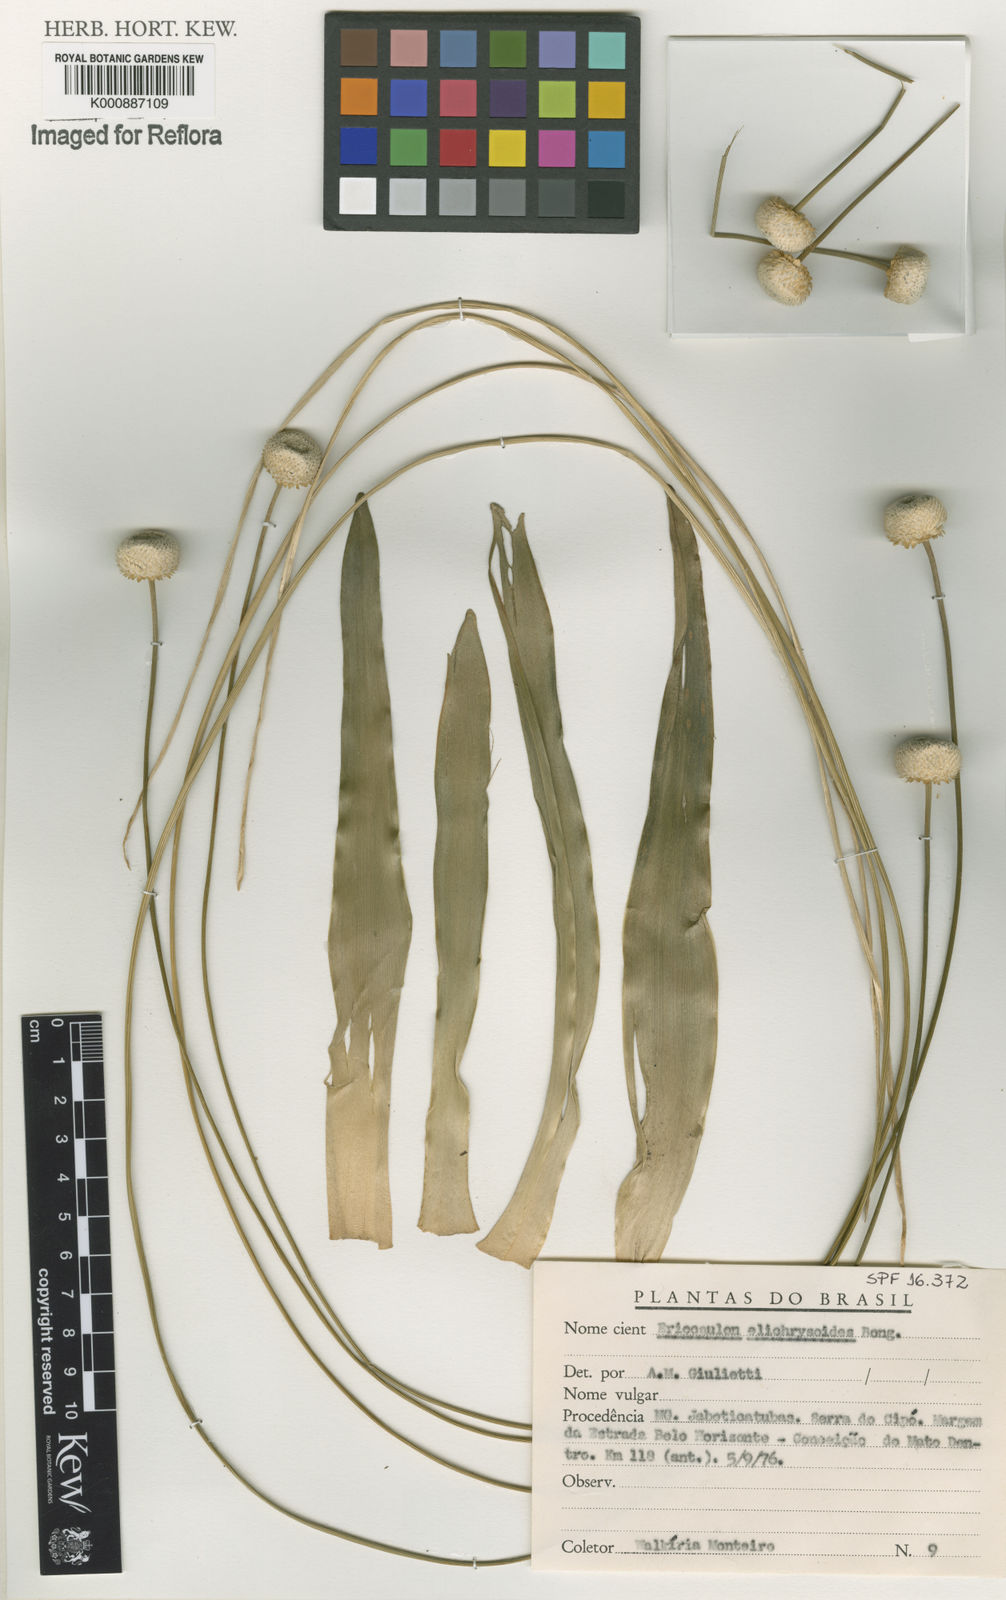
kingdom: Plantae
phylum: Tracheophyta
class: Liliopsida
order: Poales
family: Eriocaulaceae
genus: Paepalanthus
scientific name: Paepalanthus elongatus
